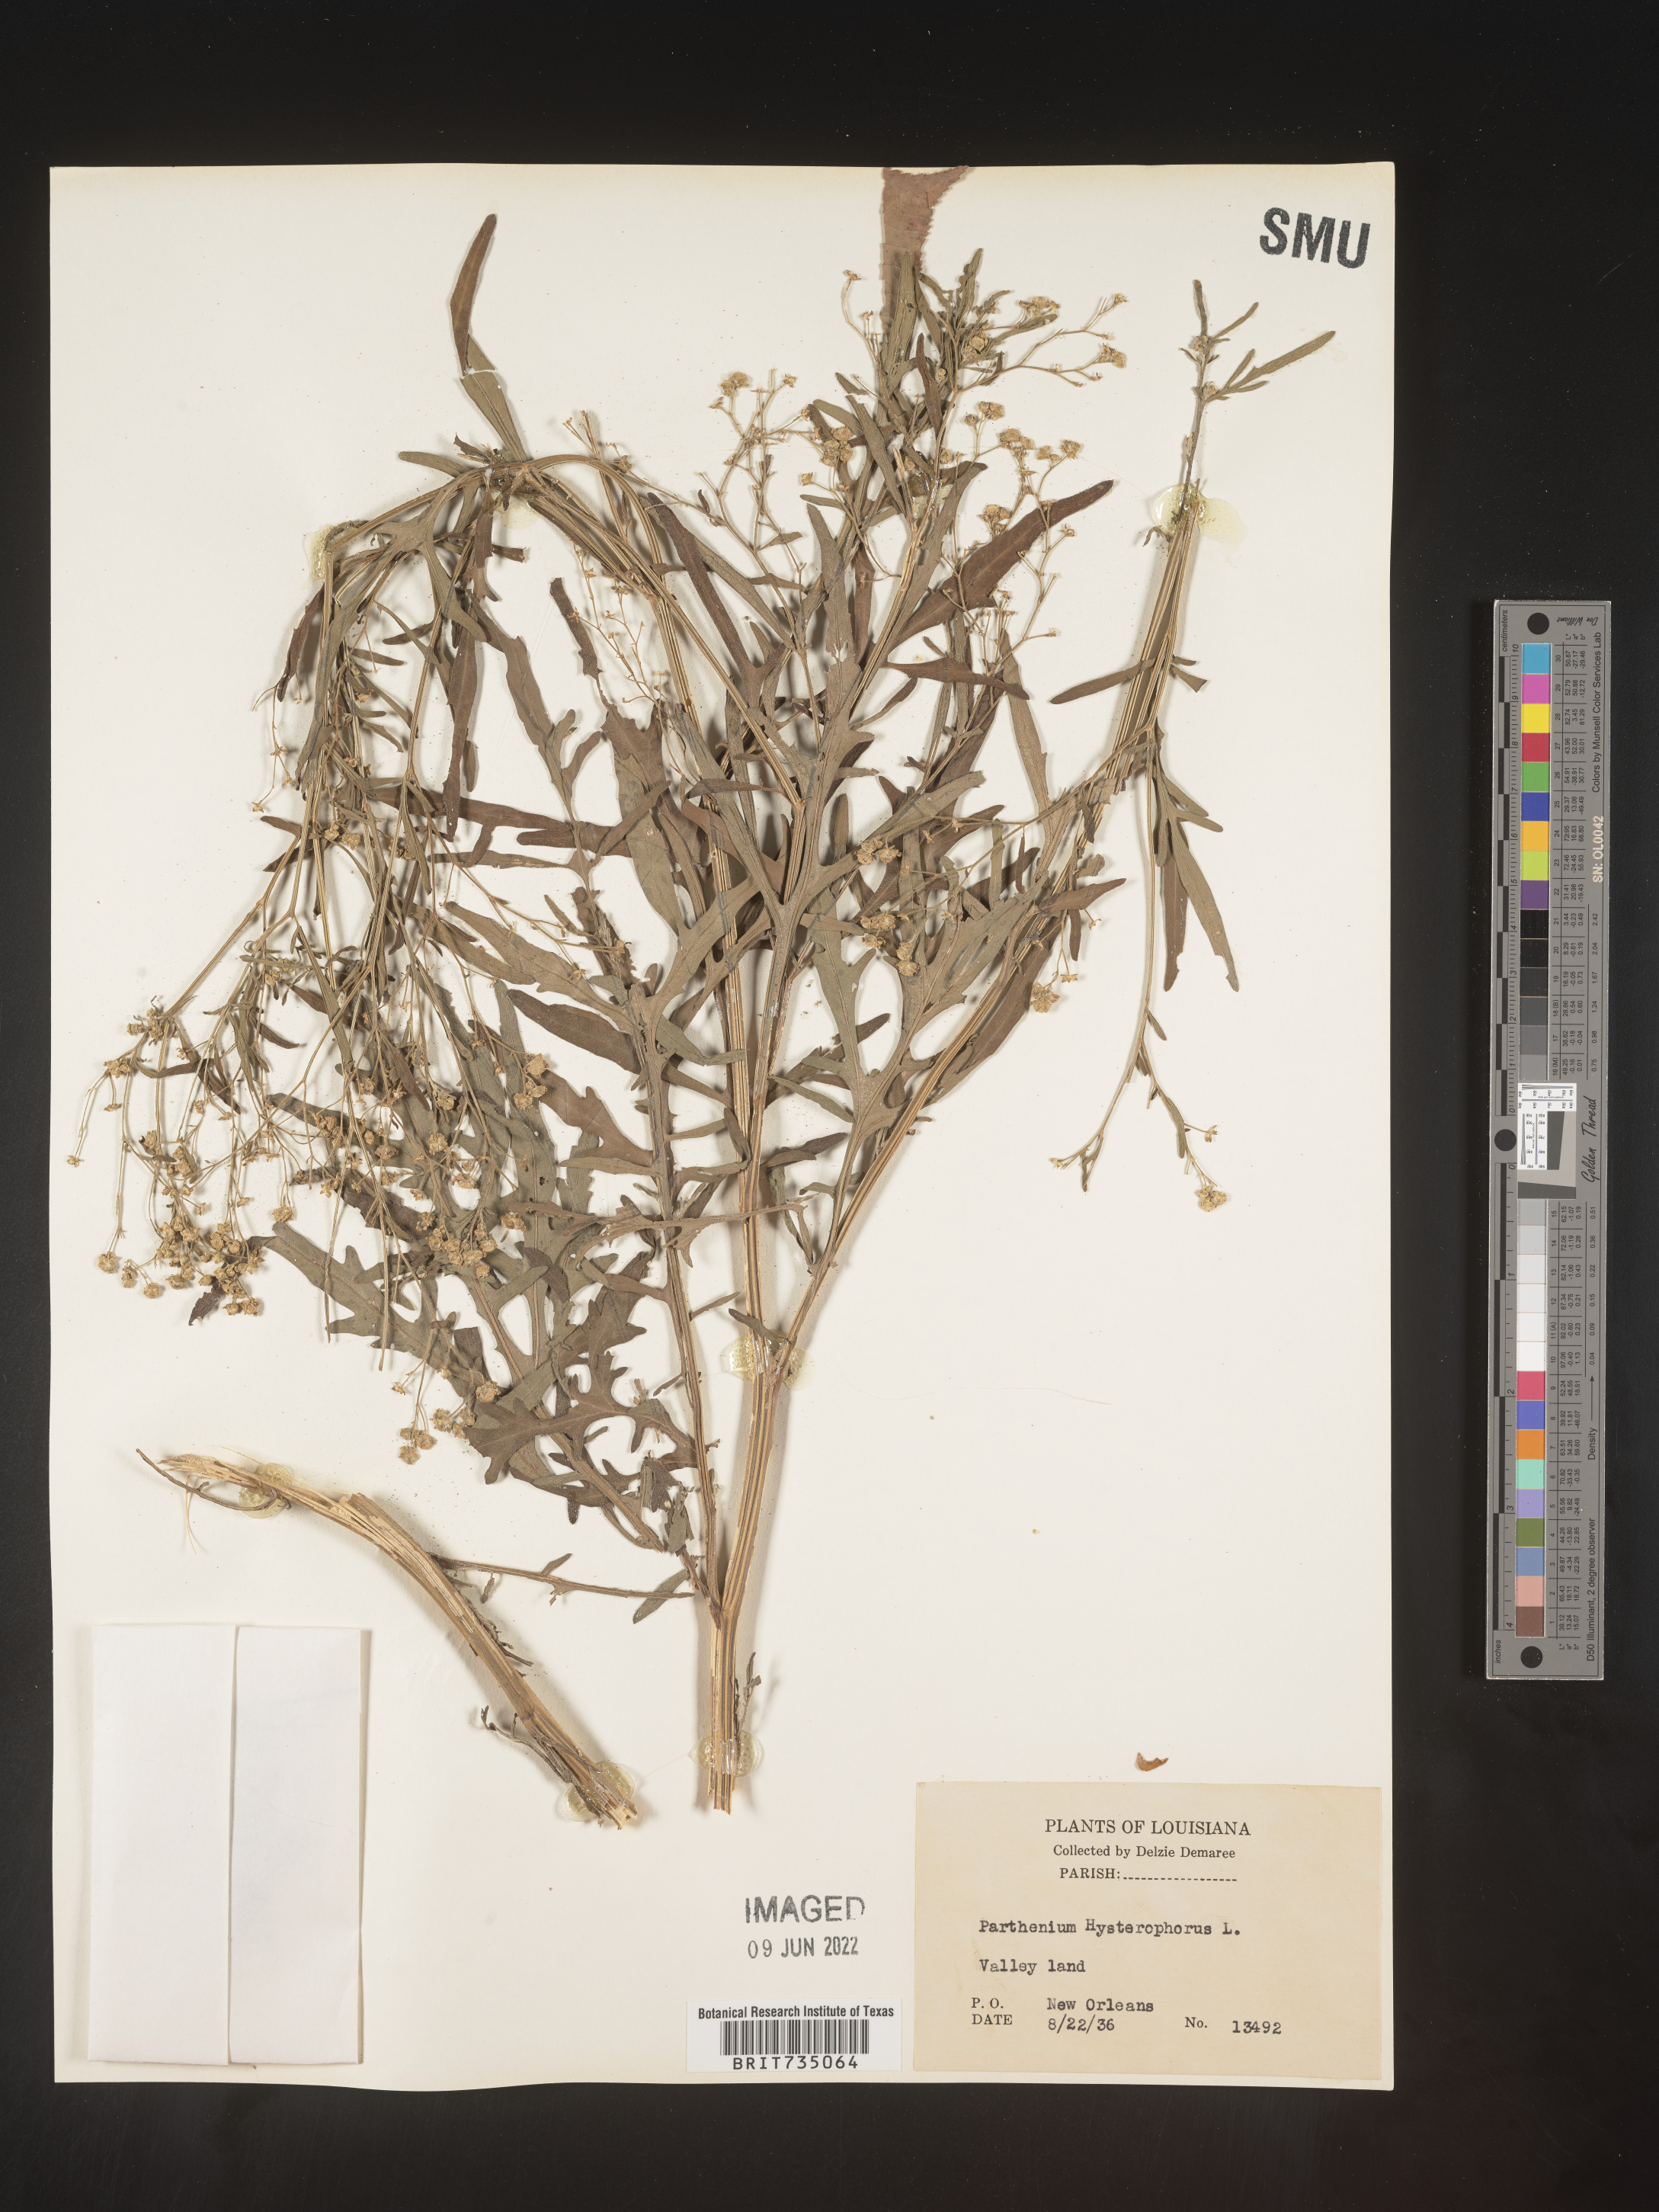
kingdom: Plantae
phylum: Tracheophyta
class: Magnoliopsida
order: Asterales
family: Asteraceae
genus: Parthenium
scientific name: Parthenium hysterophorus
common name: Santa maria feverfew
